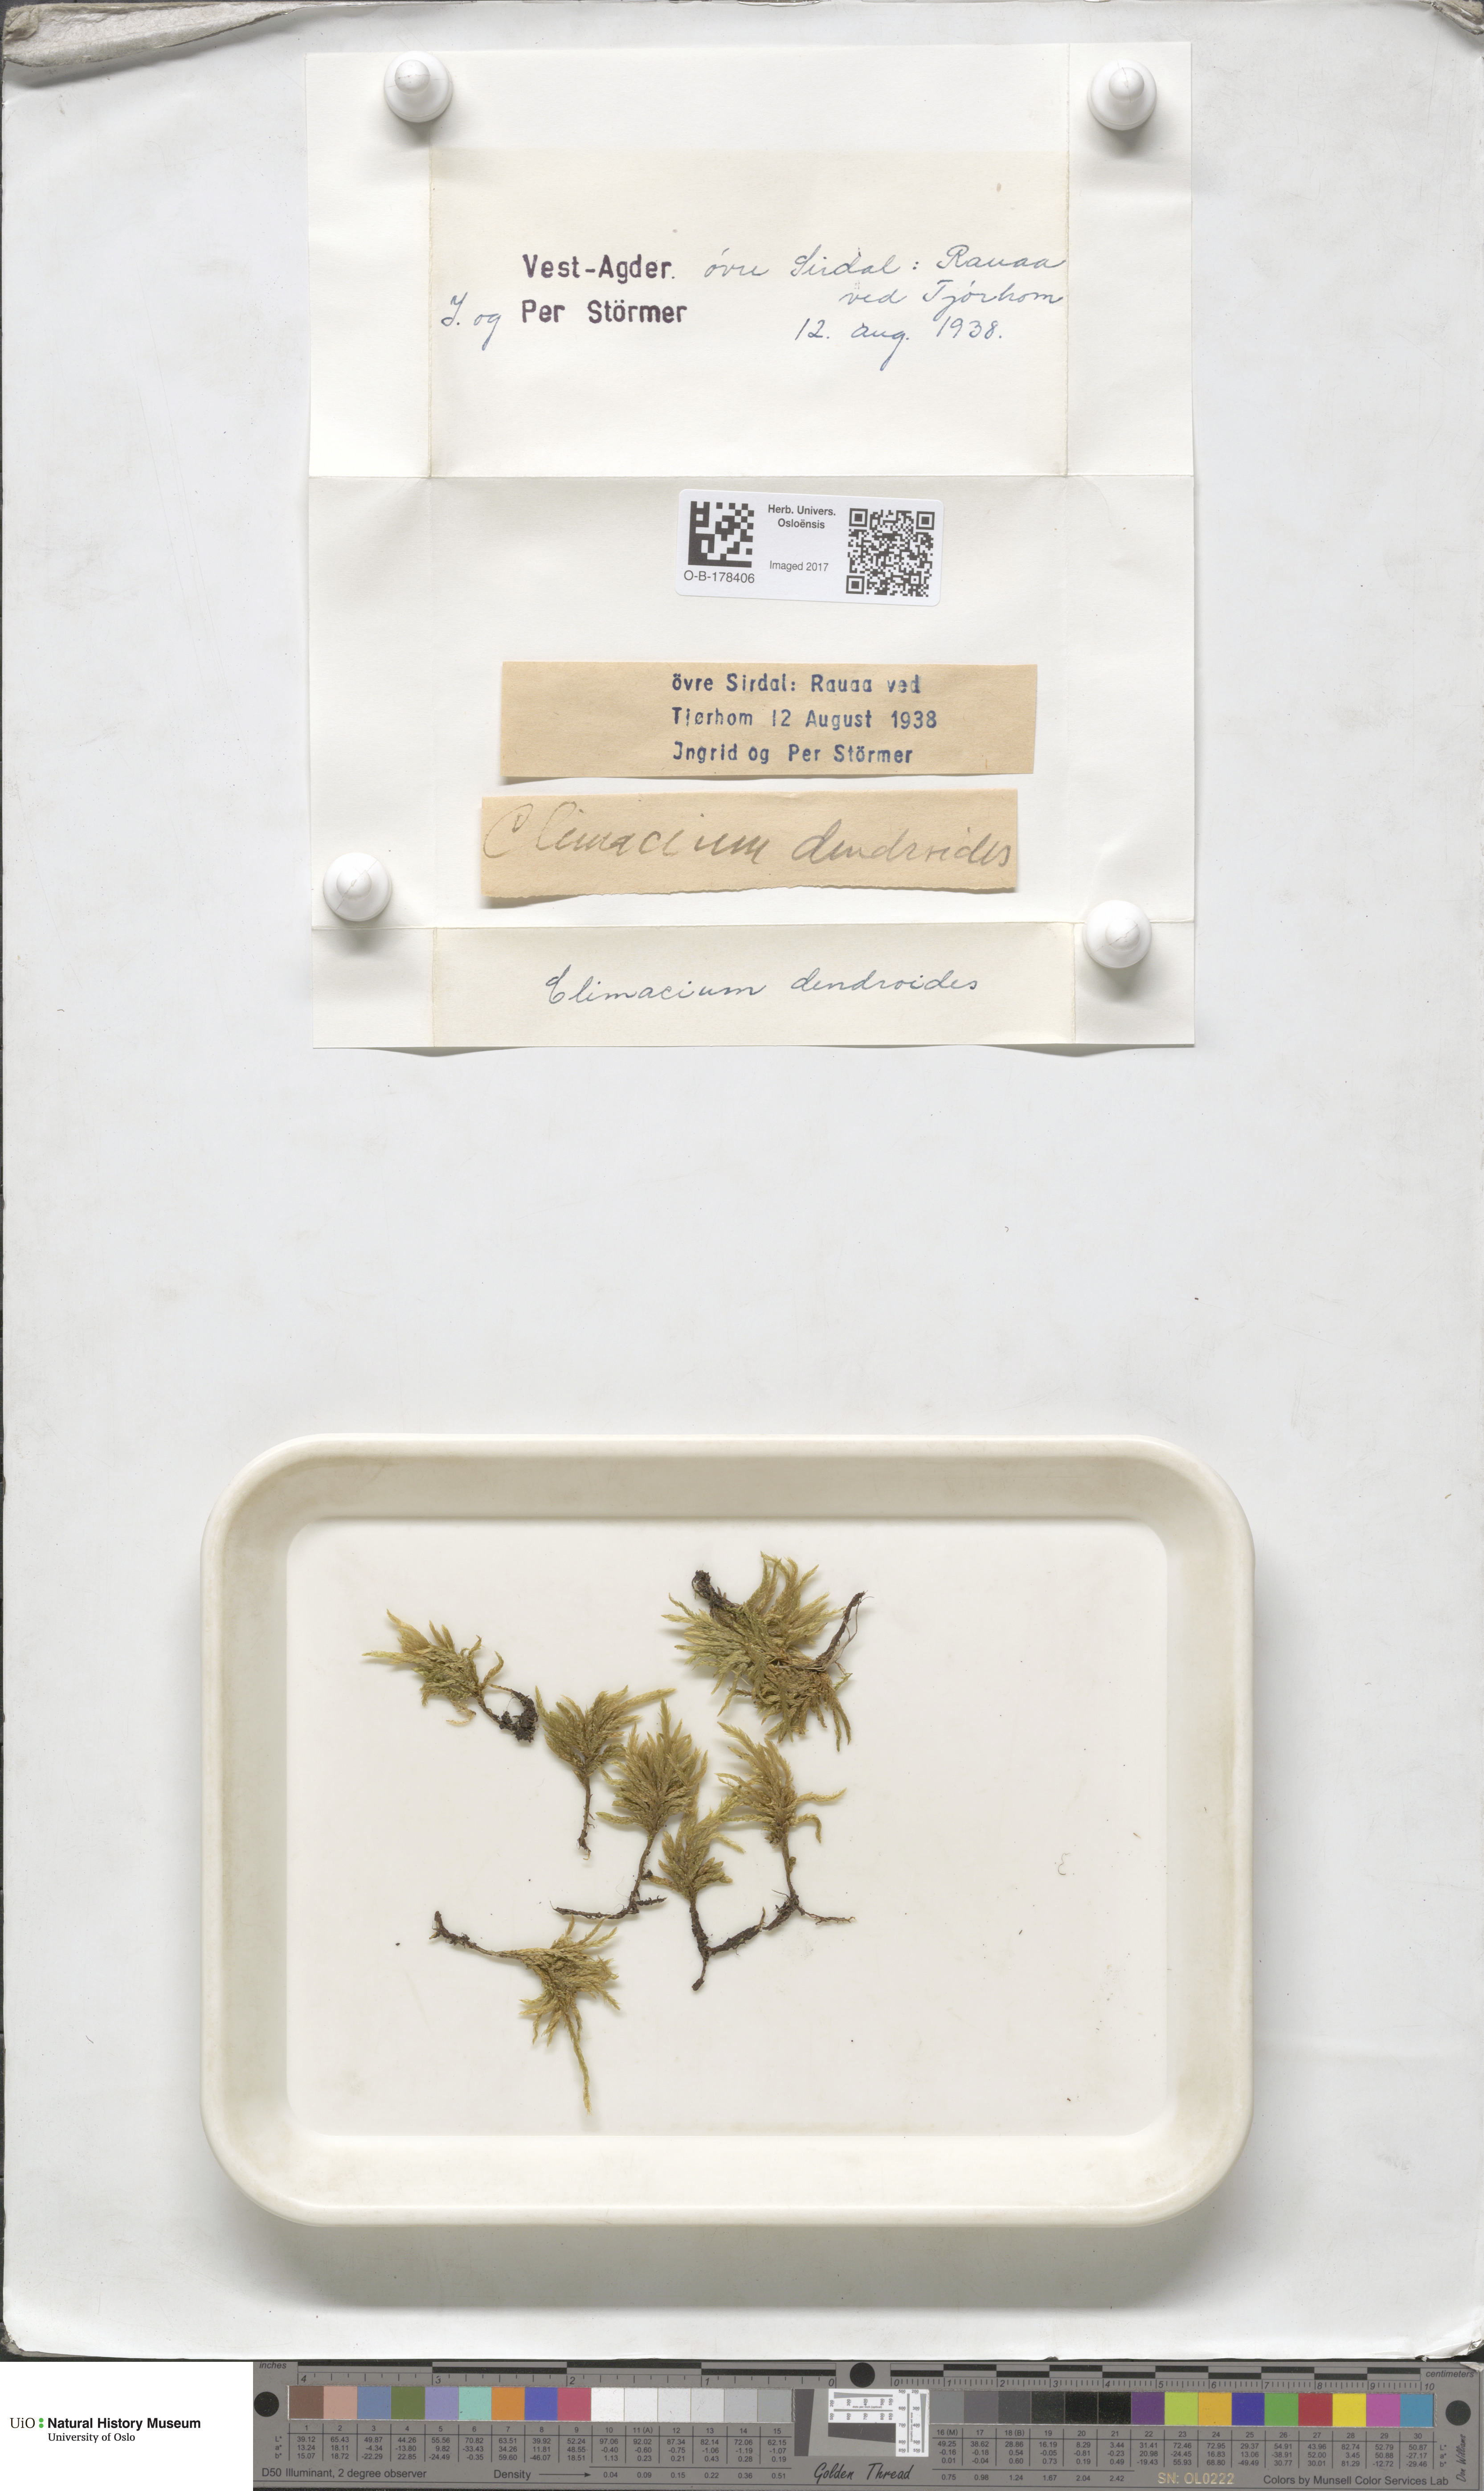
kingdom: Plantae
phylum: Bryophyta
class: Bryopsida
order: Hypnales
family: Climaciaceae
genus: Climacium
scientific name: Climacium dendroides
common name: Northern tree moss
